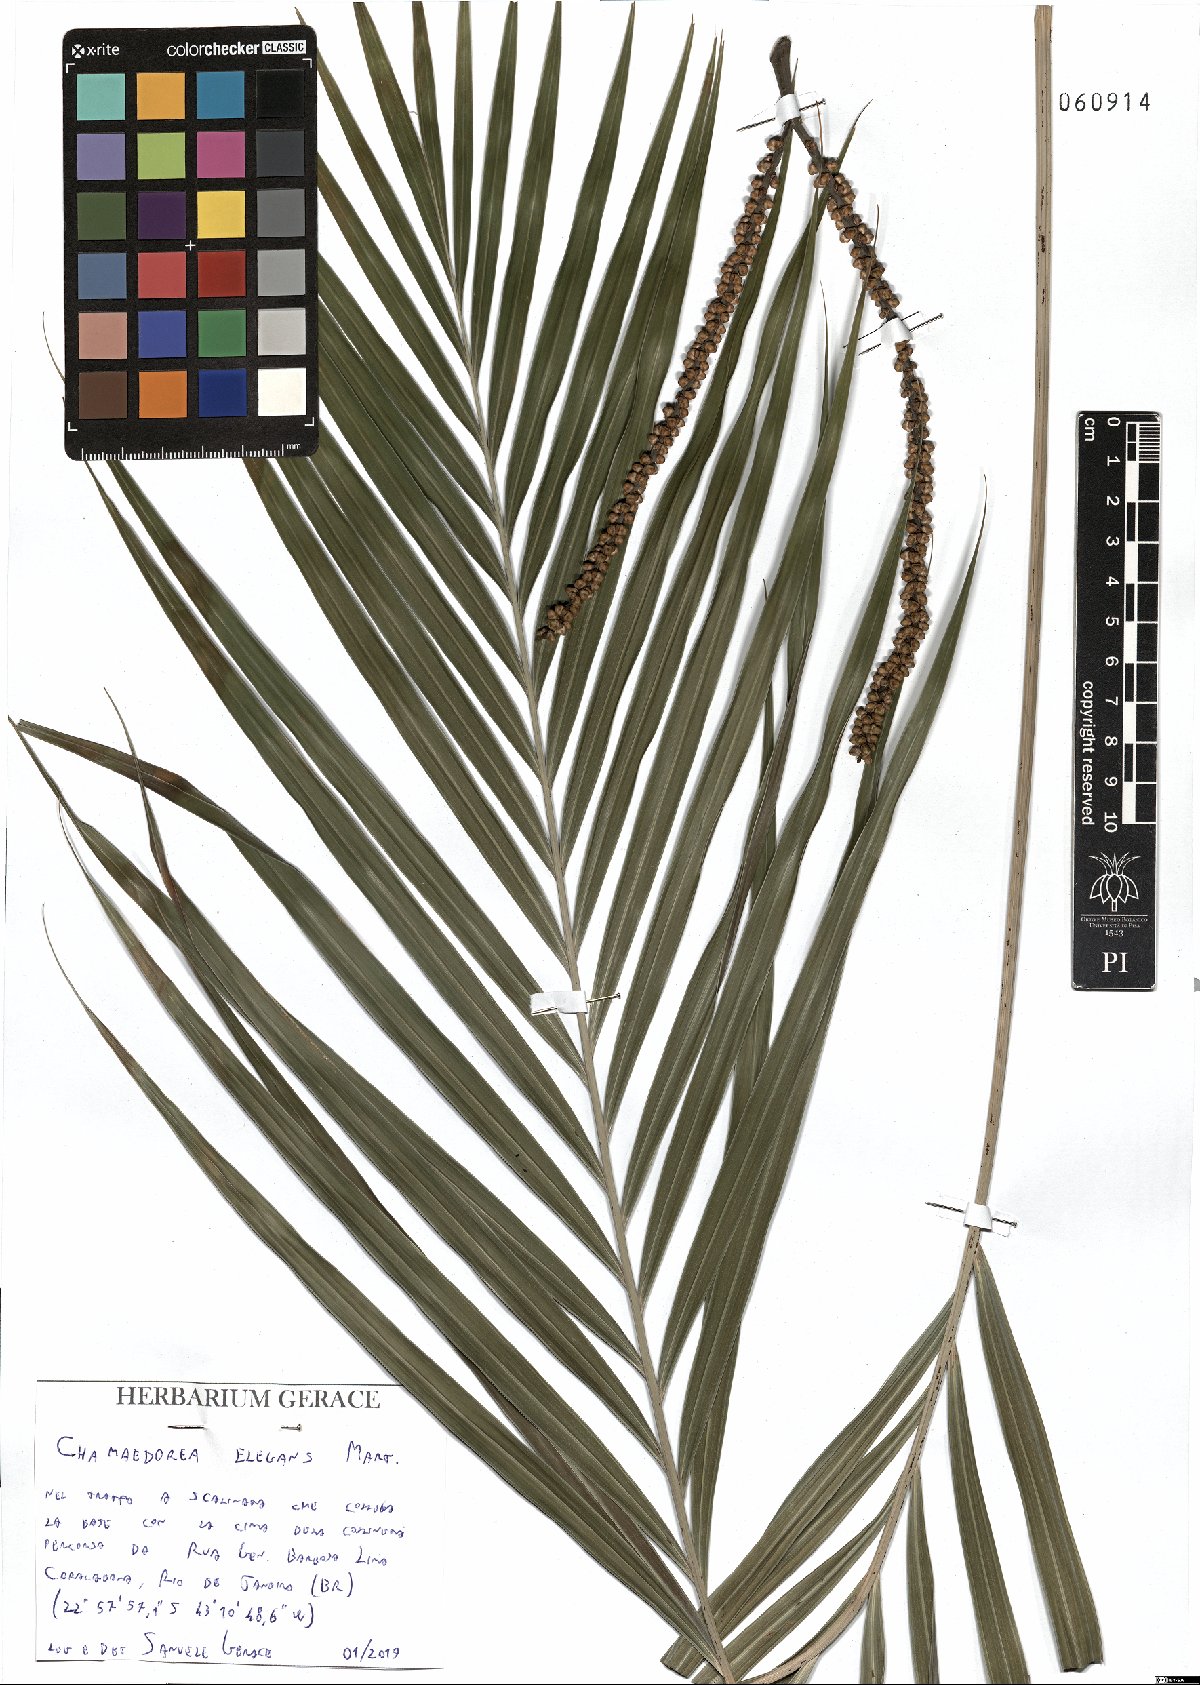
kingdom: Plantae
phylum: Tracheophyta
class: Liliopsida
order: Arecales
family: Arecaceae
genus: Chamaedorea
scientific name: Chamaedorea elegans
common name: Good-luck palm
